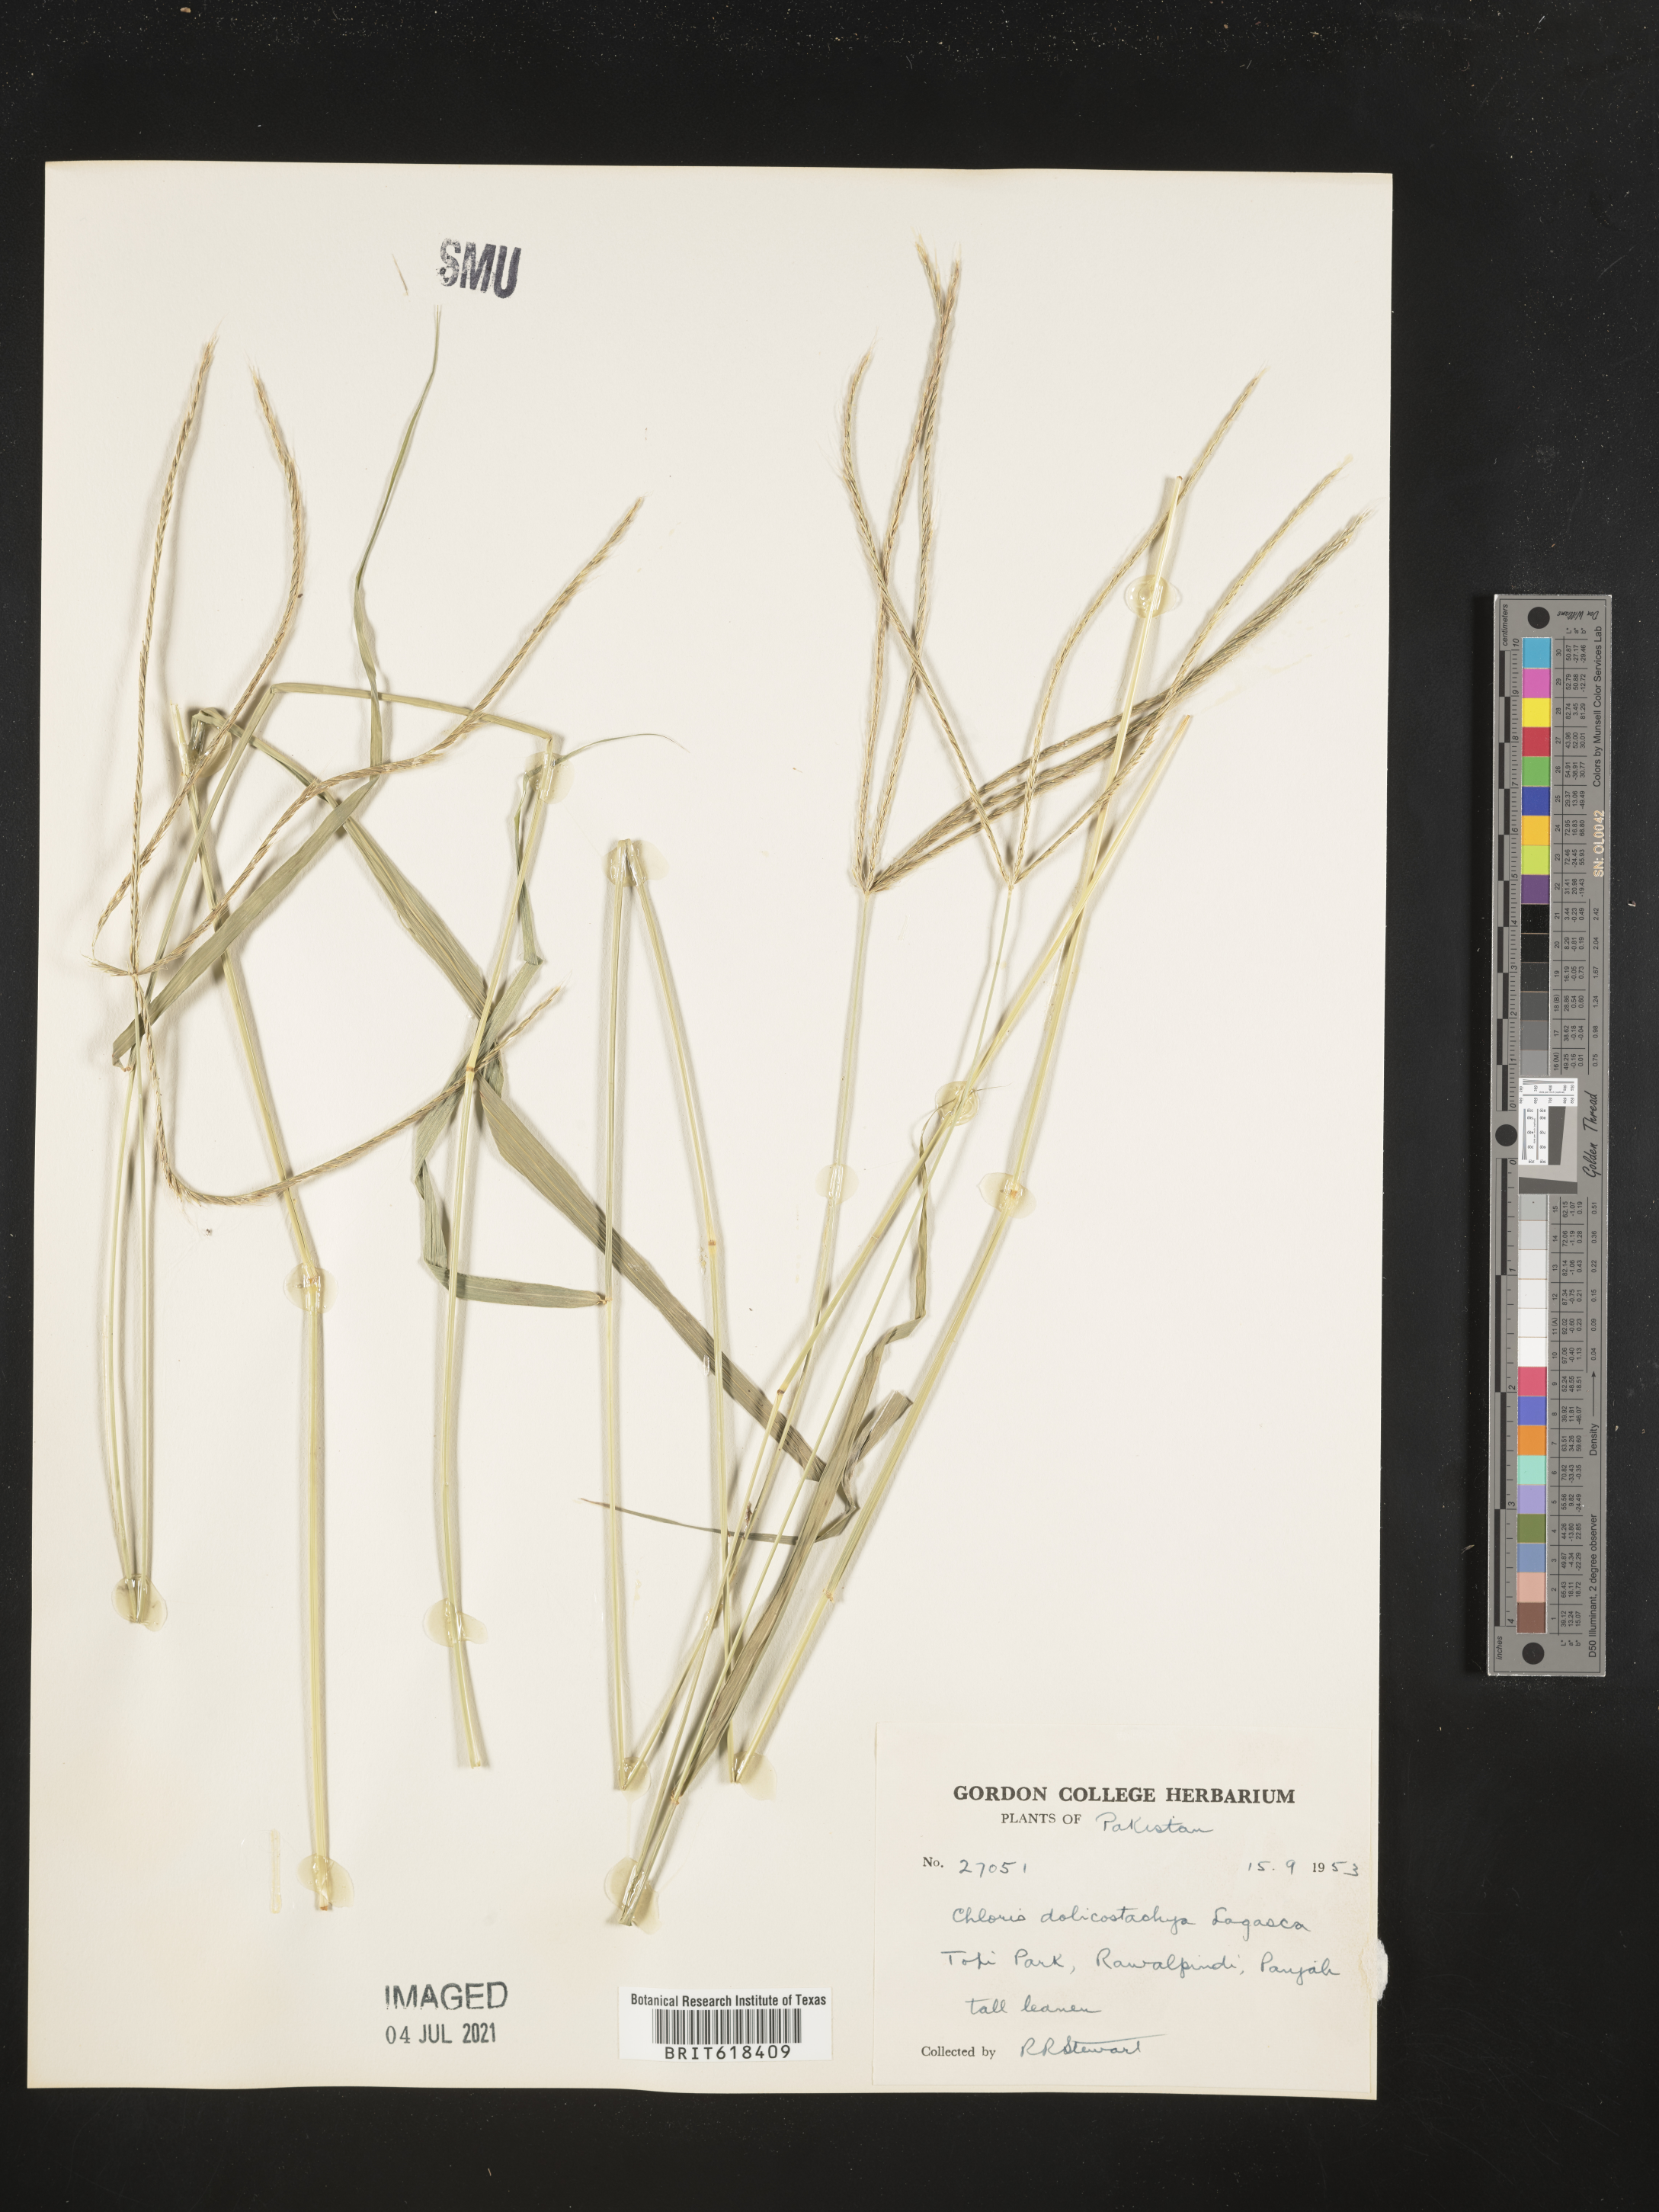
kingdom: Plantae
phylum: Tracheophyta
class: Liliopsida
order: Poales
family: Poaceae
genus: Enteropogon
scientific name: Enteropogon dolichostachyus
